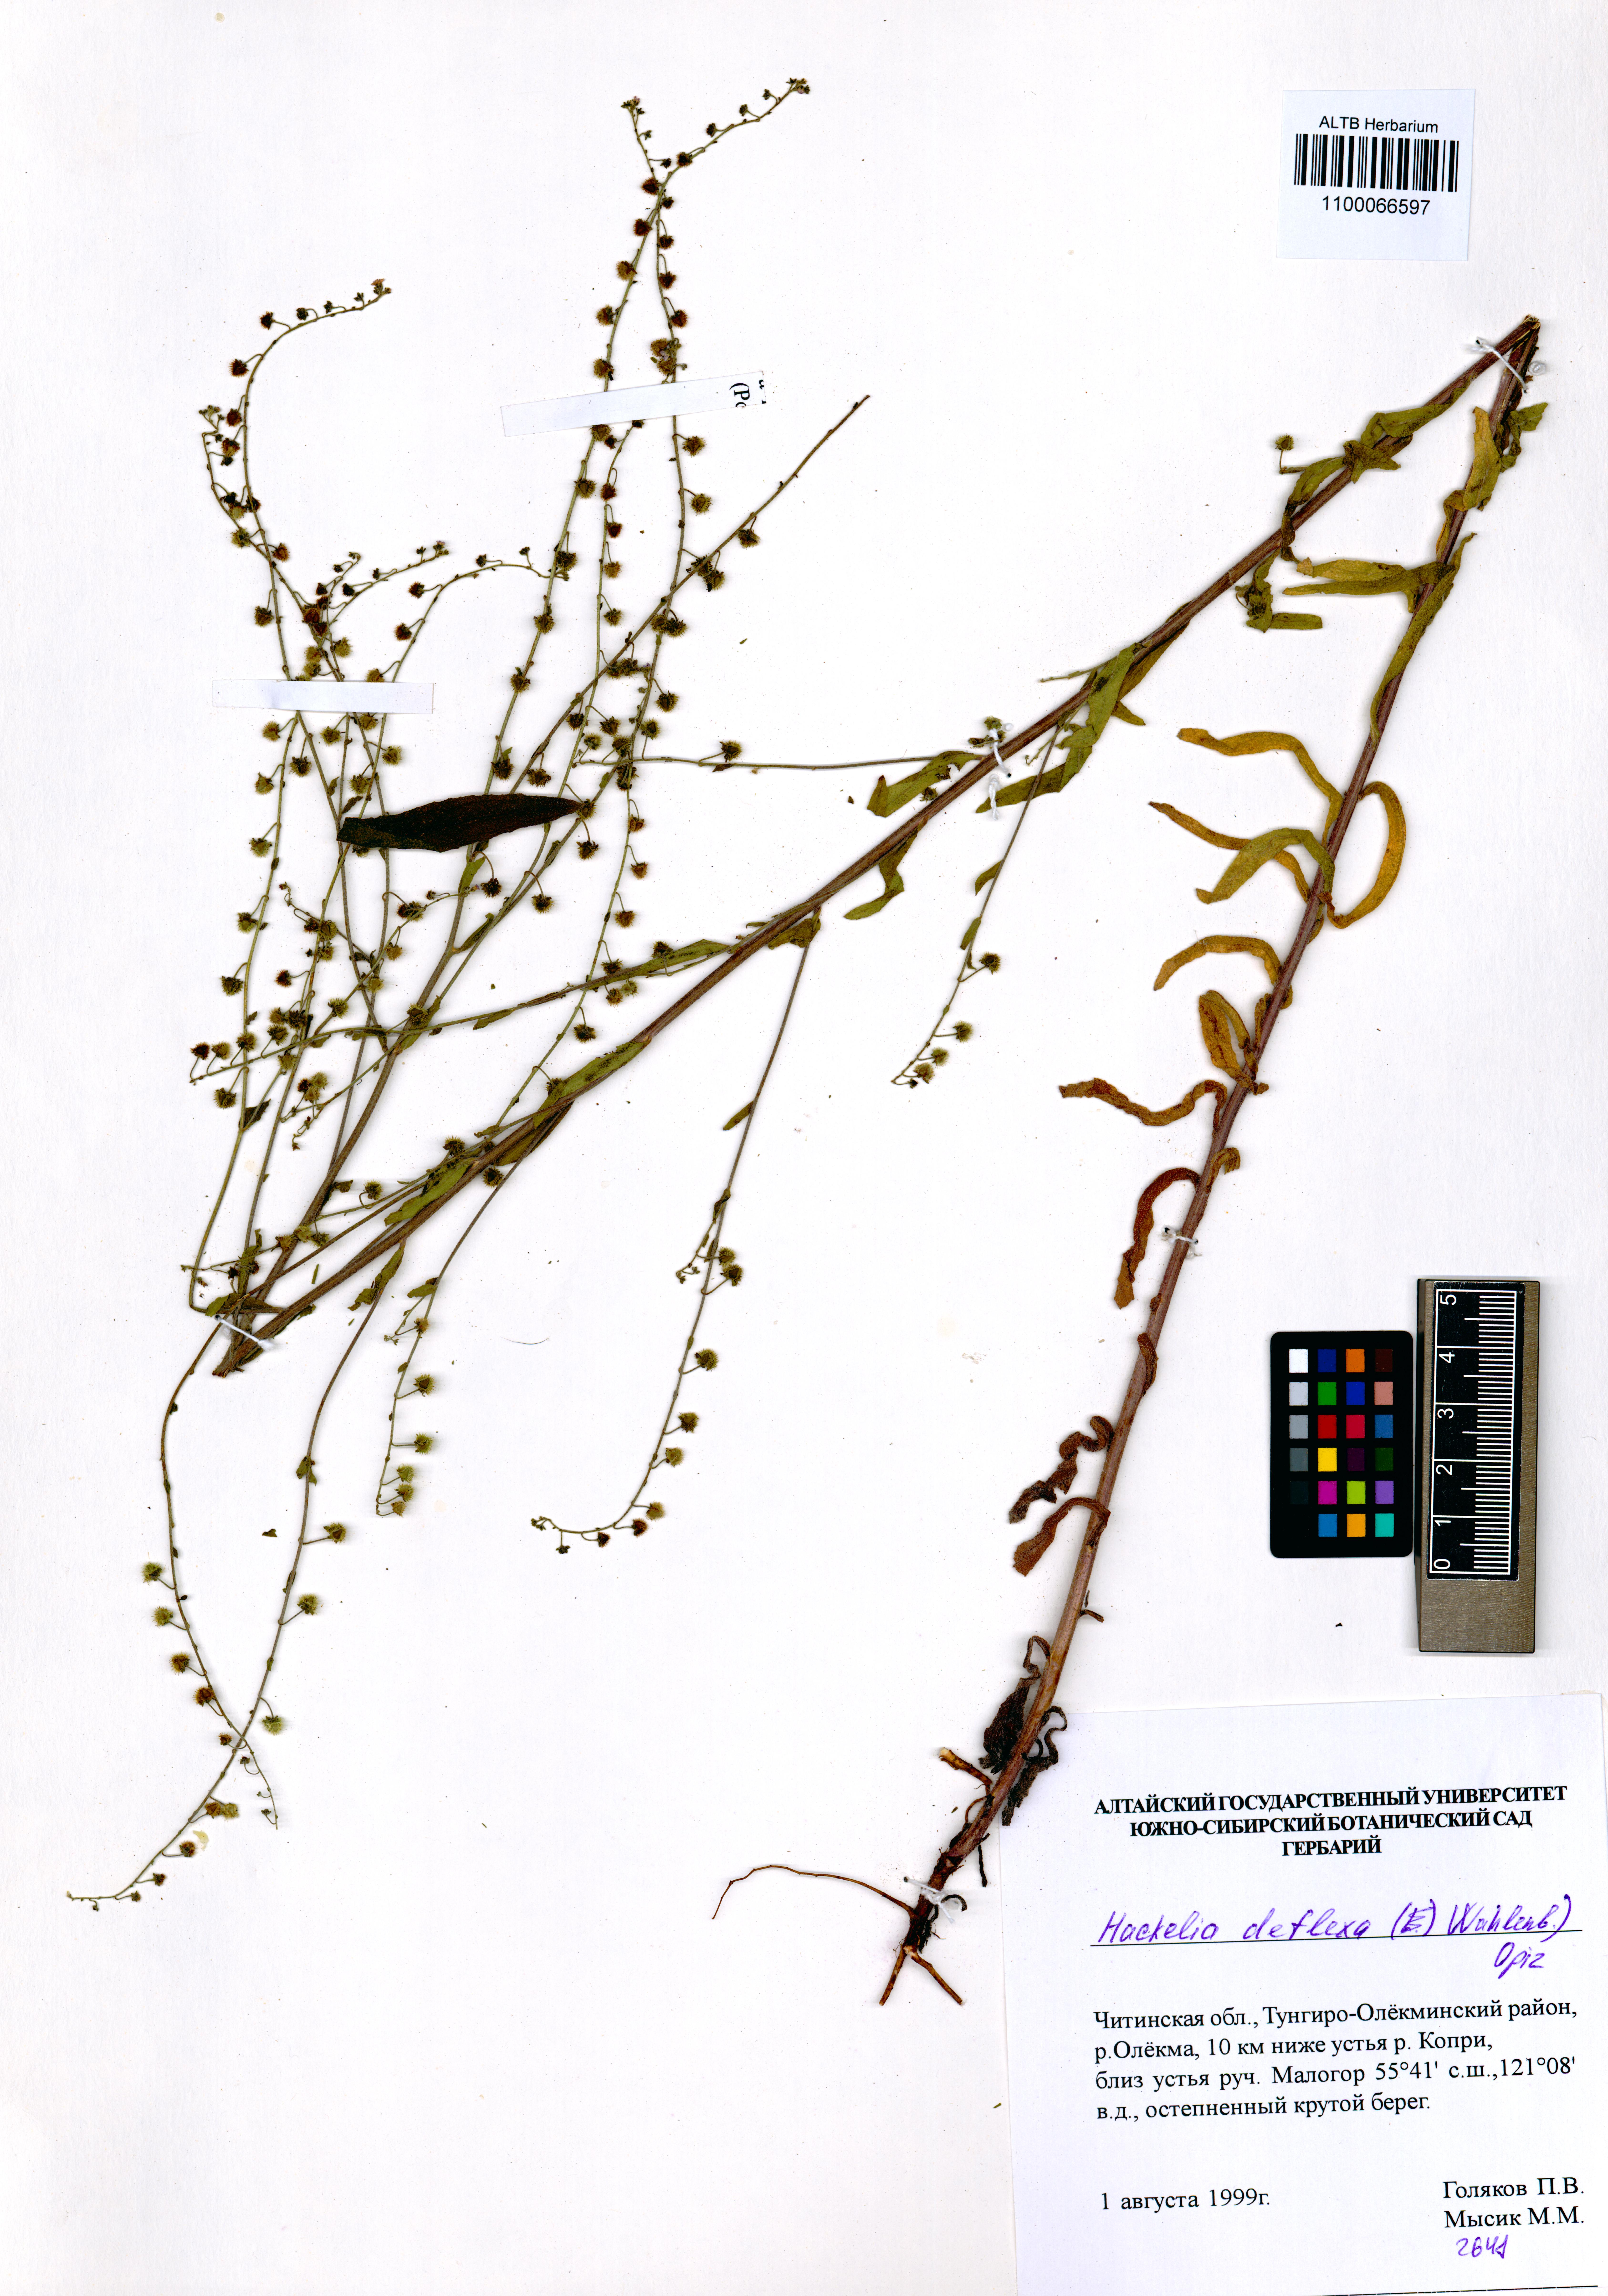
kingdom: Plantae
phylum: Tracheophyta
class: Magnoliopsida
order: Boraginales
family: Boraginaceae
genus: Hackelia
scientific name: Hackelia deflexa
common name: Nodding stickseed
